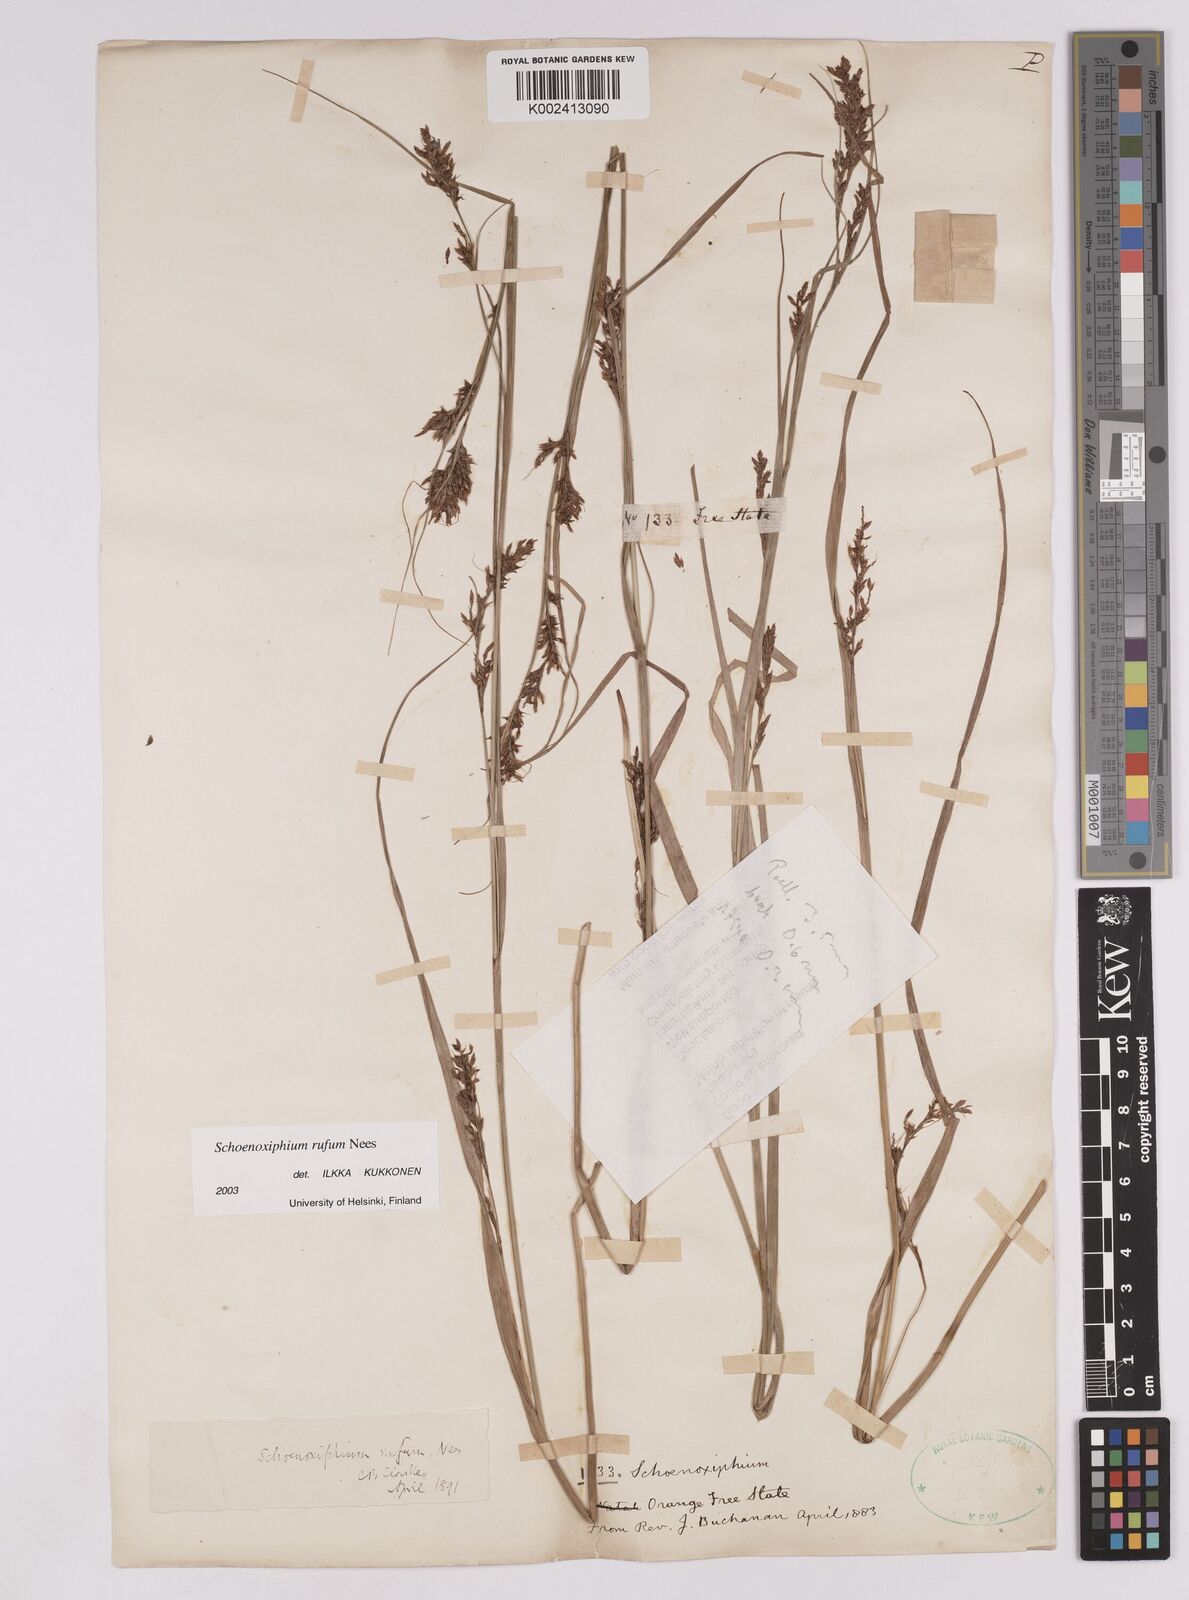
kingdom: Plantae
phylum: Tracheophyta
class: Liliopsida
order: Poales
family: Cyperaceae
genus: Carex
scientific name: Carex ludwigii
